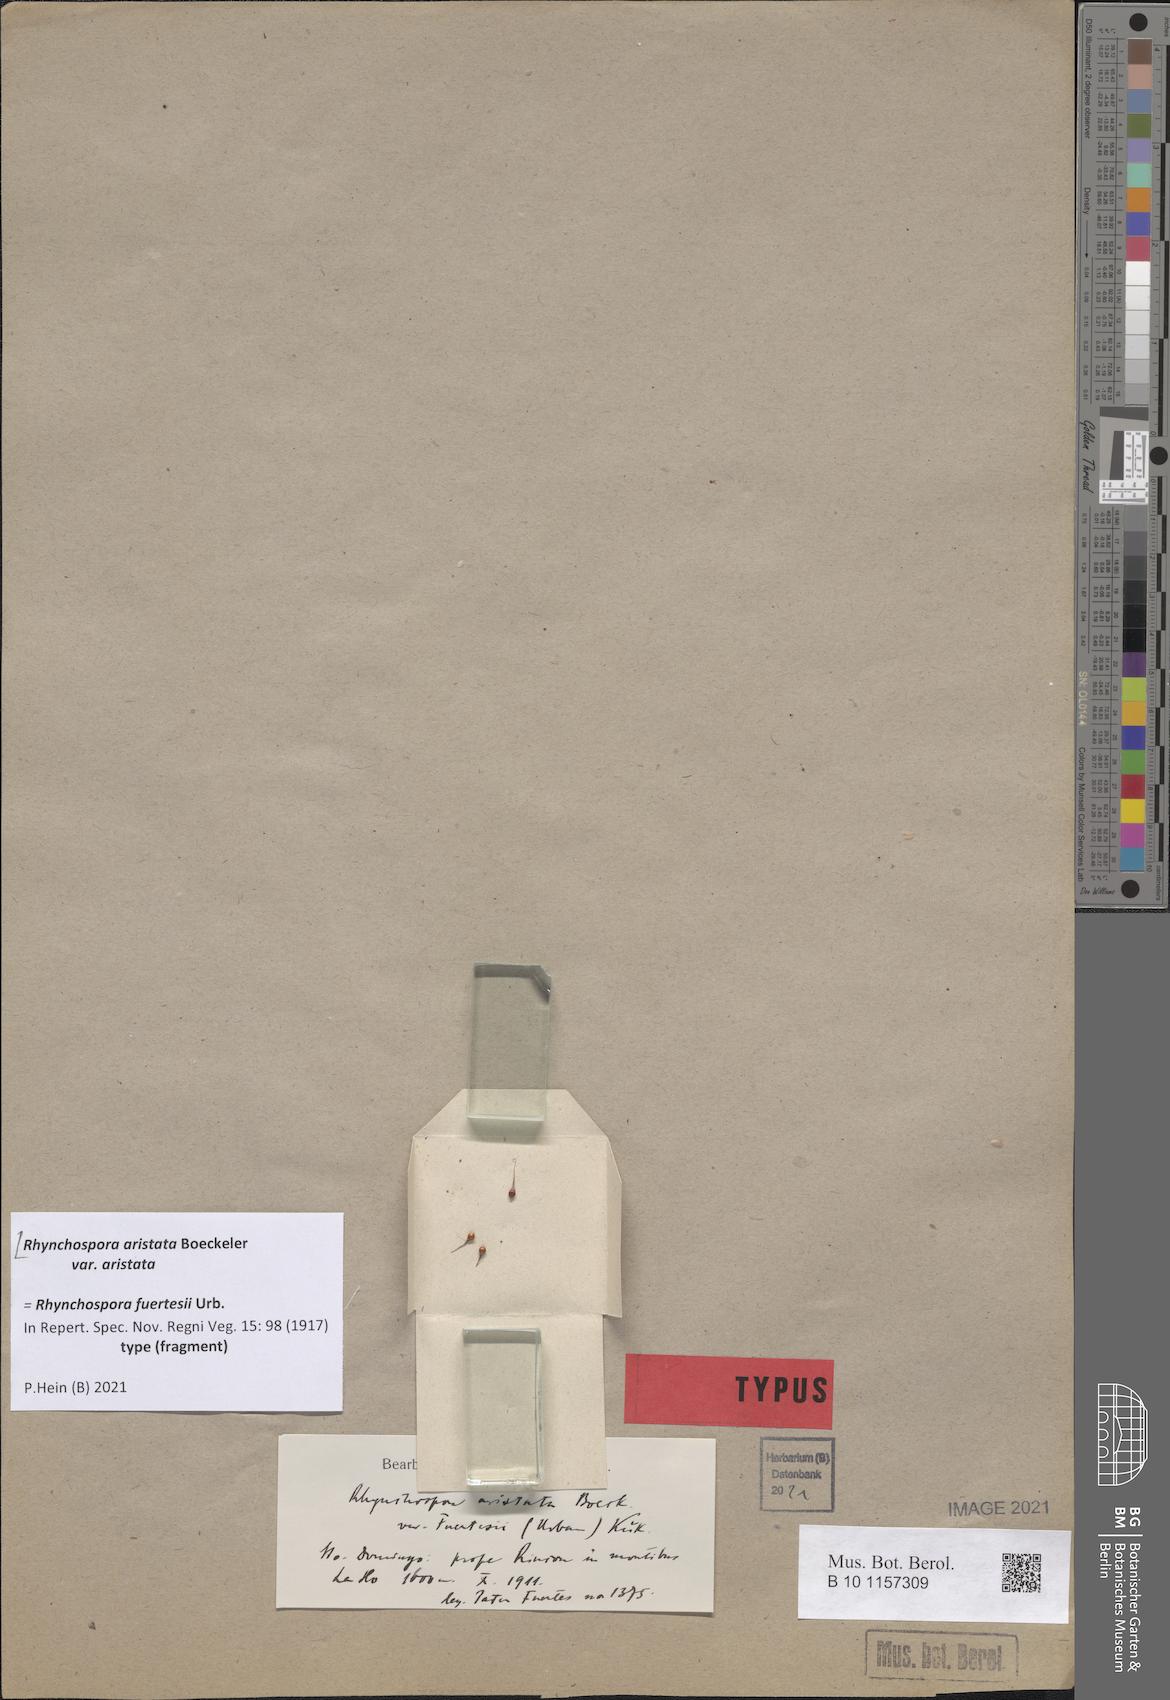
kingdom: Plantae
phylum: Tracheophyta
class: Liliopsida
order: Poales
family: Cyperaceae
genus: Rhynchospora
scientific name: Rhynchospora aristata
